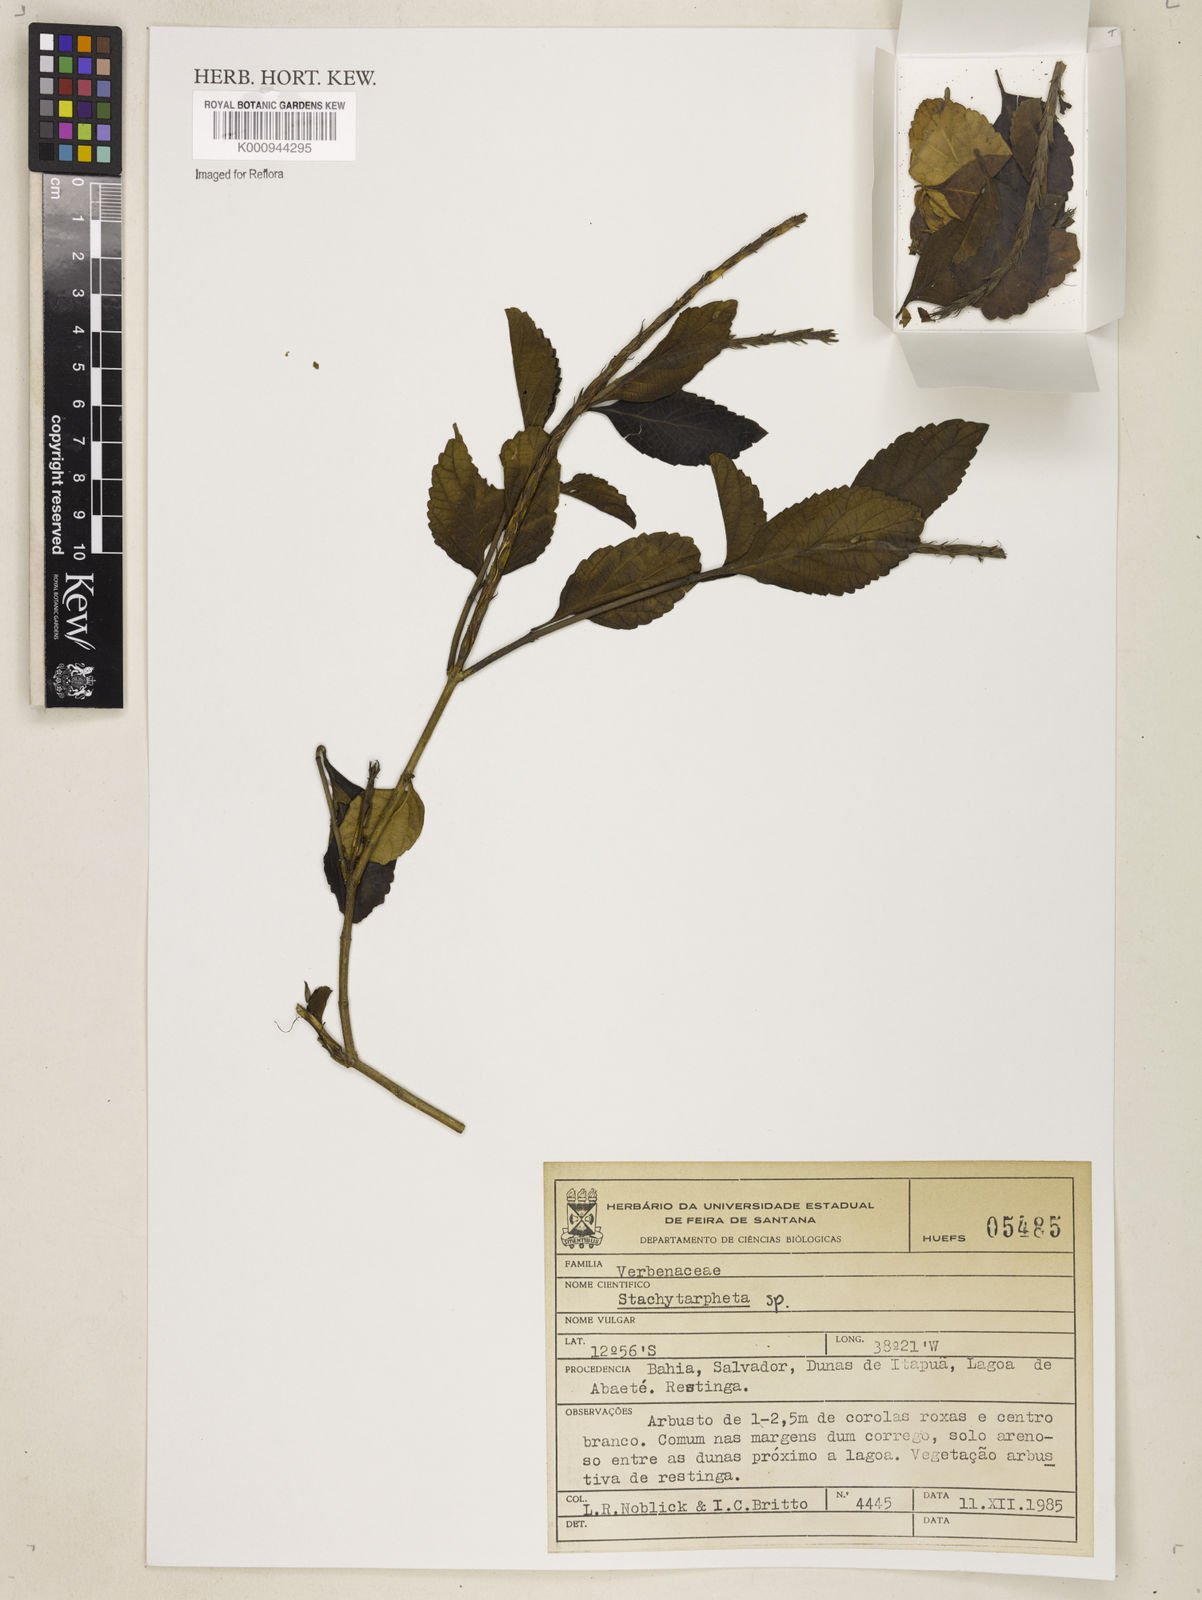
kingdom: Plantae
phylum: Tracheophyta
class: Magnoliopsida
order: Lamiales
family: Verbenaceae
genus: Stachytarpheta
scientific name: Stachytarpheta
